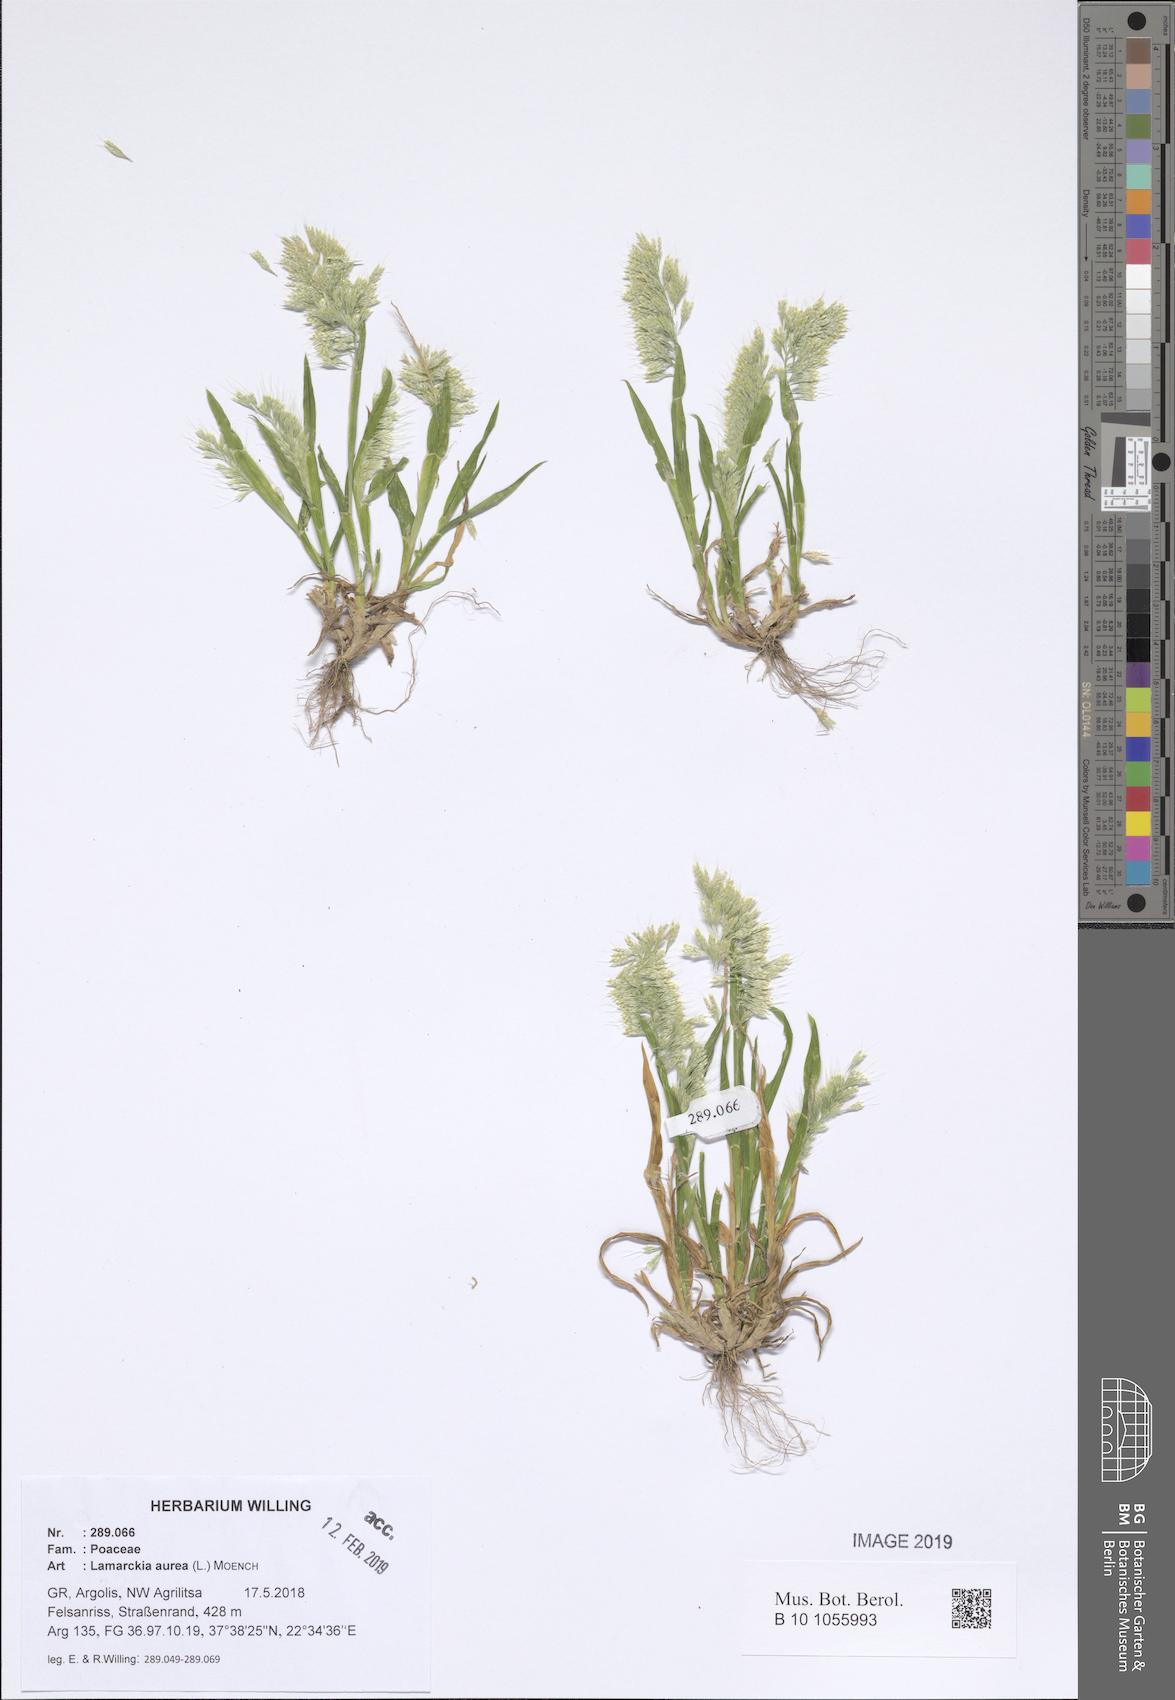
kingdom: Plantae
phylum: Tracheophyta
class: Liliopsida
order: Poales
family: Poaceae
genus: Lamarckia
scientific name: Lamarckia aurea
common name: Golden dog's-tail
